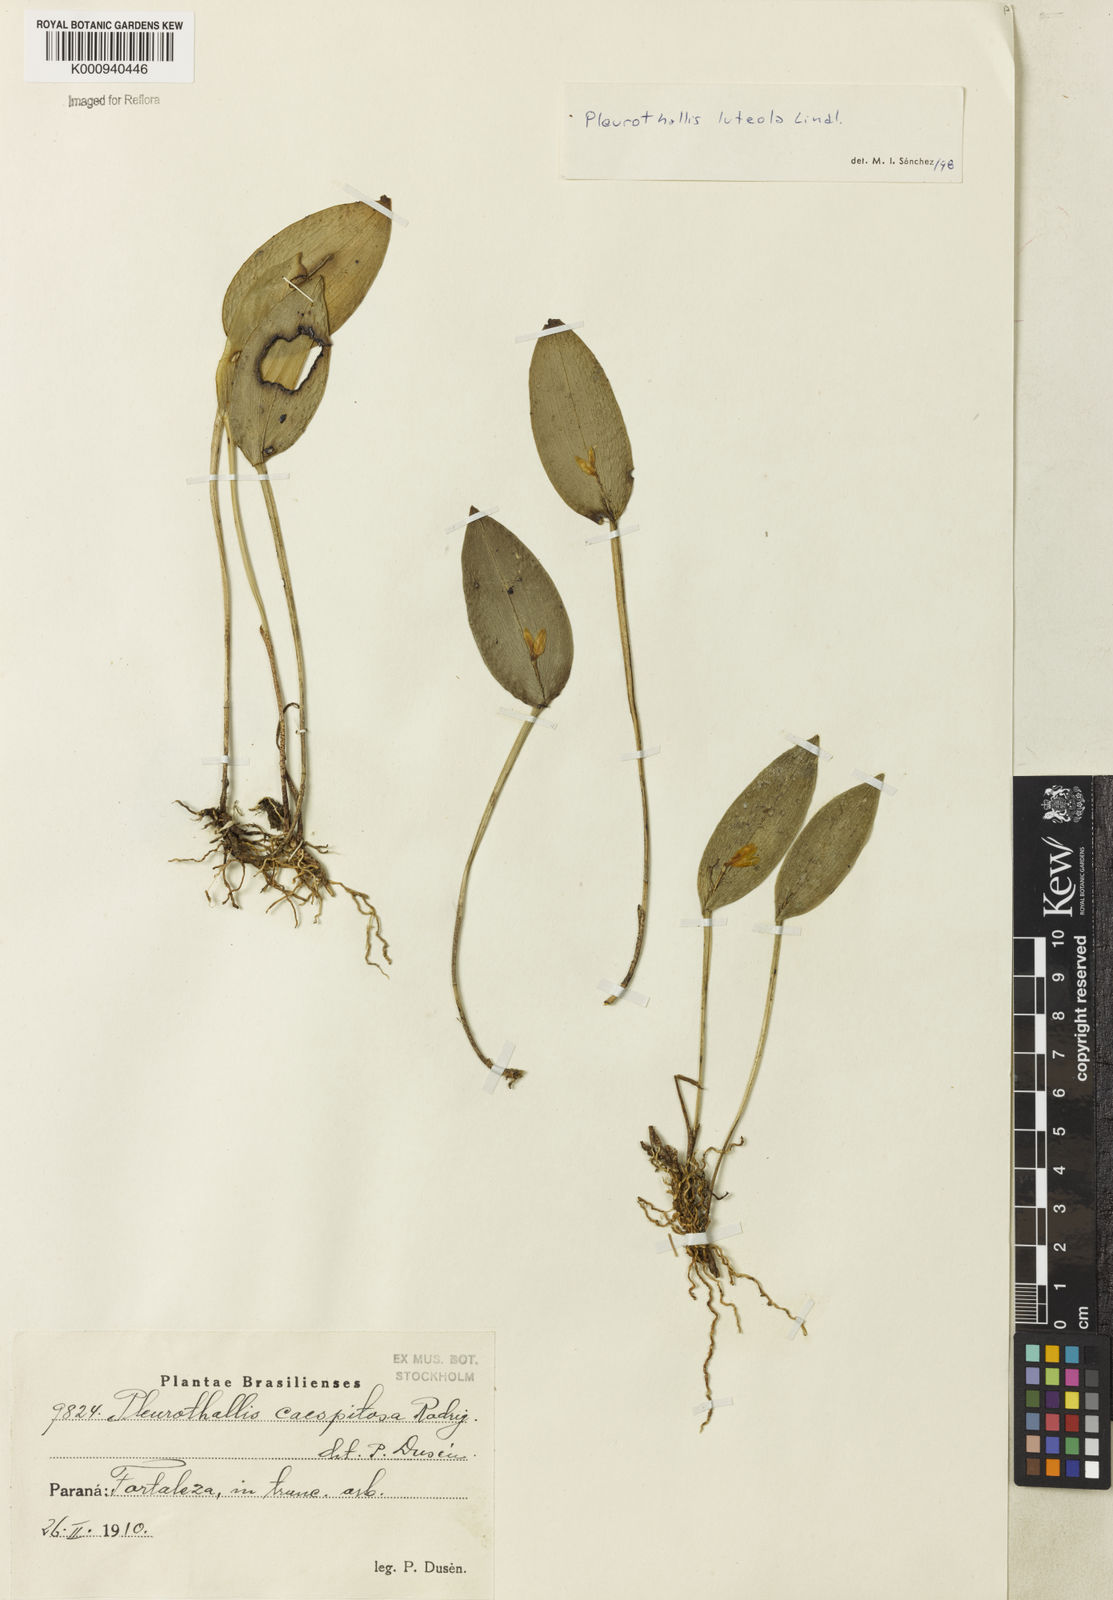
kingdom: Plantae
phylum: Tracheophyta
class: Liliopsida
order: Asparagales
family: Orchidaceae
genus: Acianthera
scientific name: Acianthera luteola
